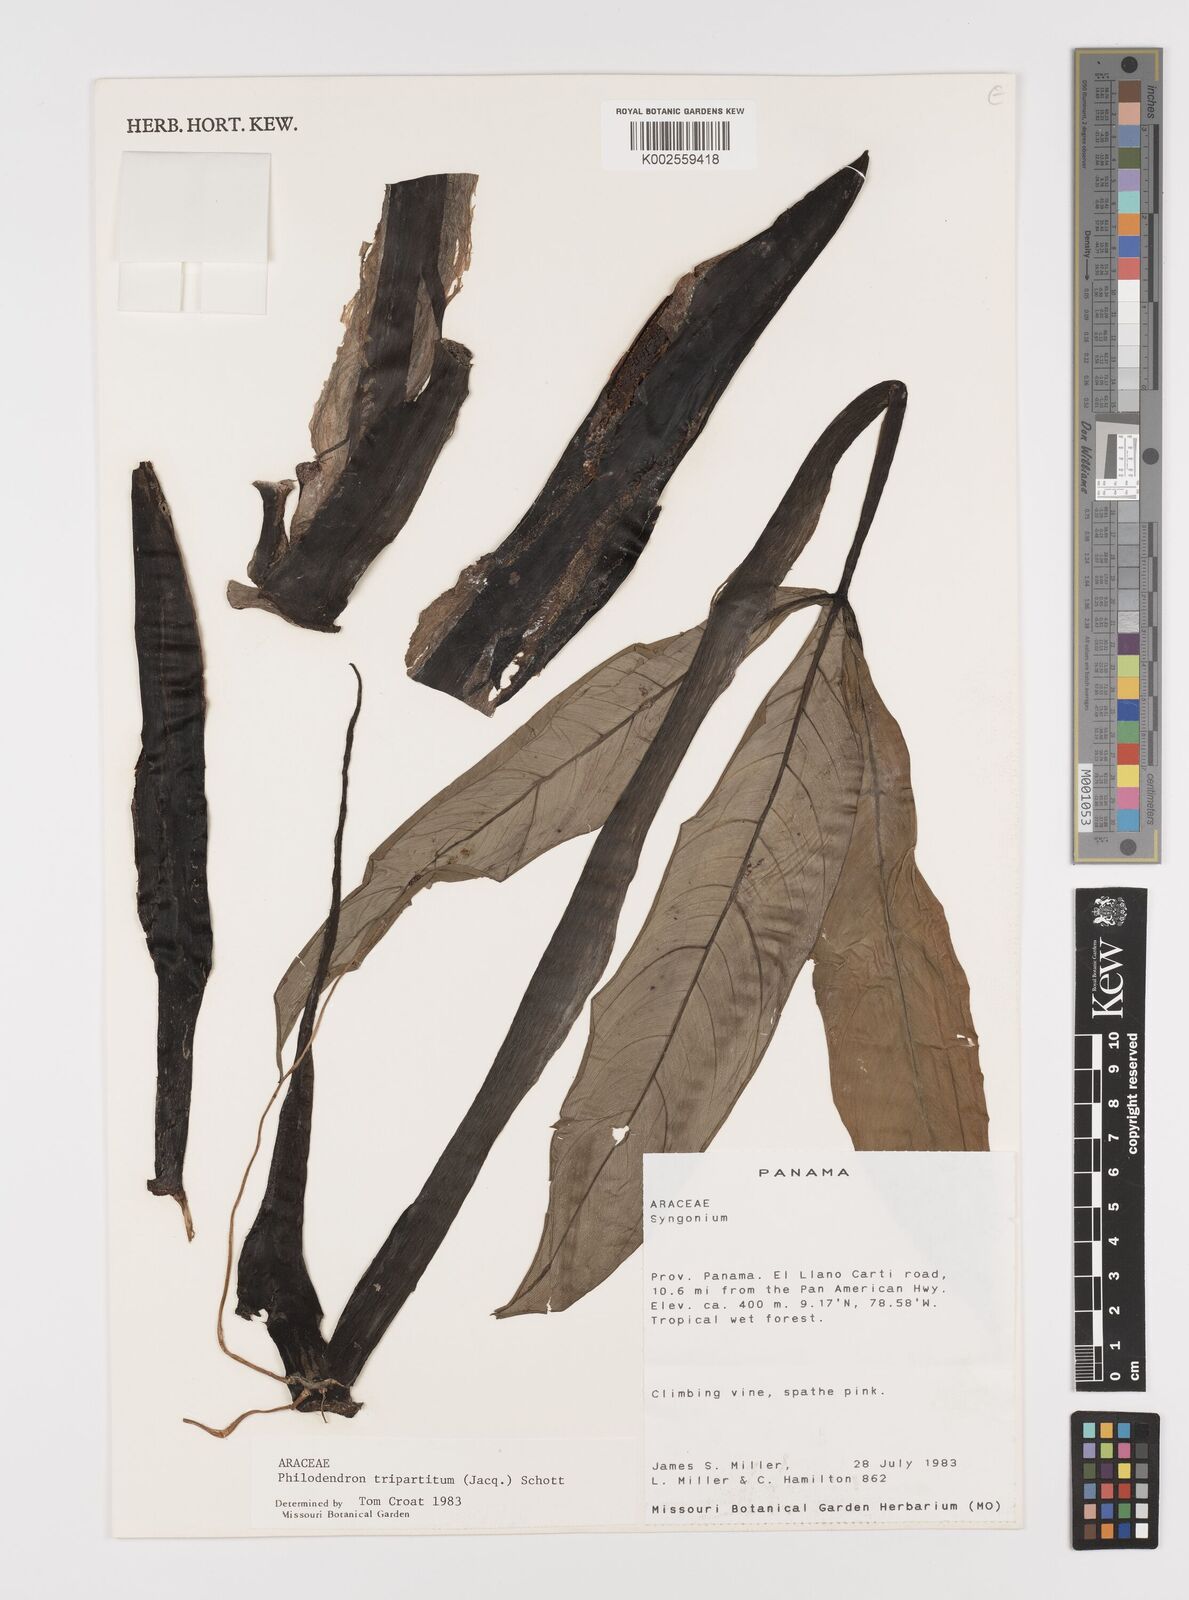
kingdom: Plantae
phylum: Tracheophyta
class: Liliopsida
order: Alismatales
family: Araceae
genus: Philodendron
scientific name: Philodendron tripartitum
